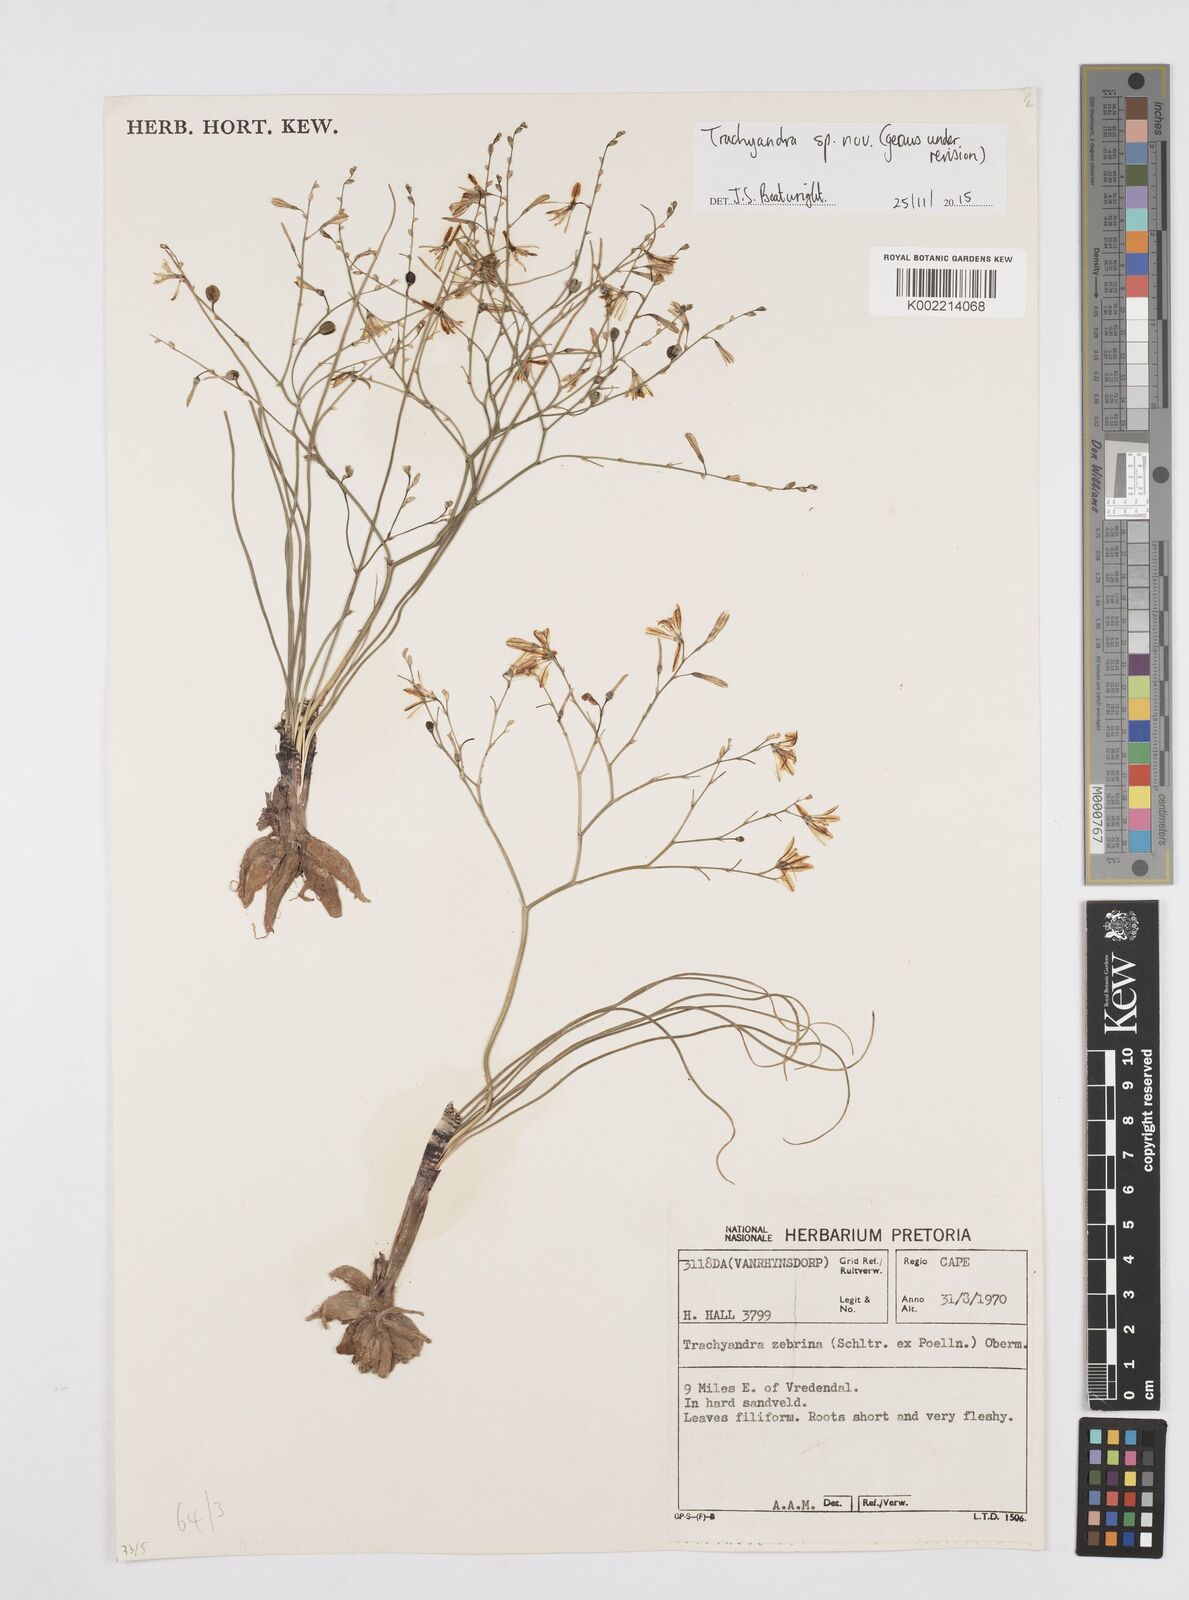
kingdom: Plantae
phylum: Tracheophyta
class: Liliopsida
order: Asparagales
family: Asphodelaceae
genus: Trachyandra
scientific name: Trachyandra
